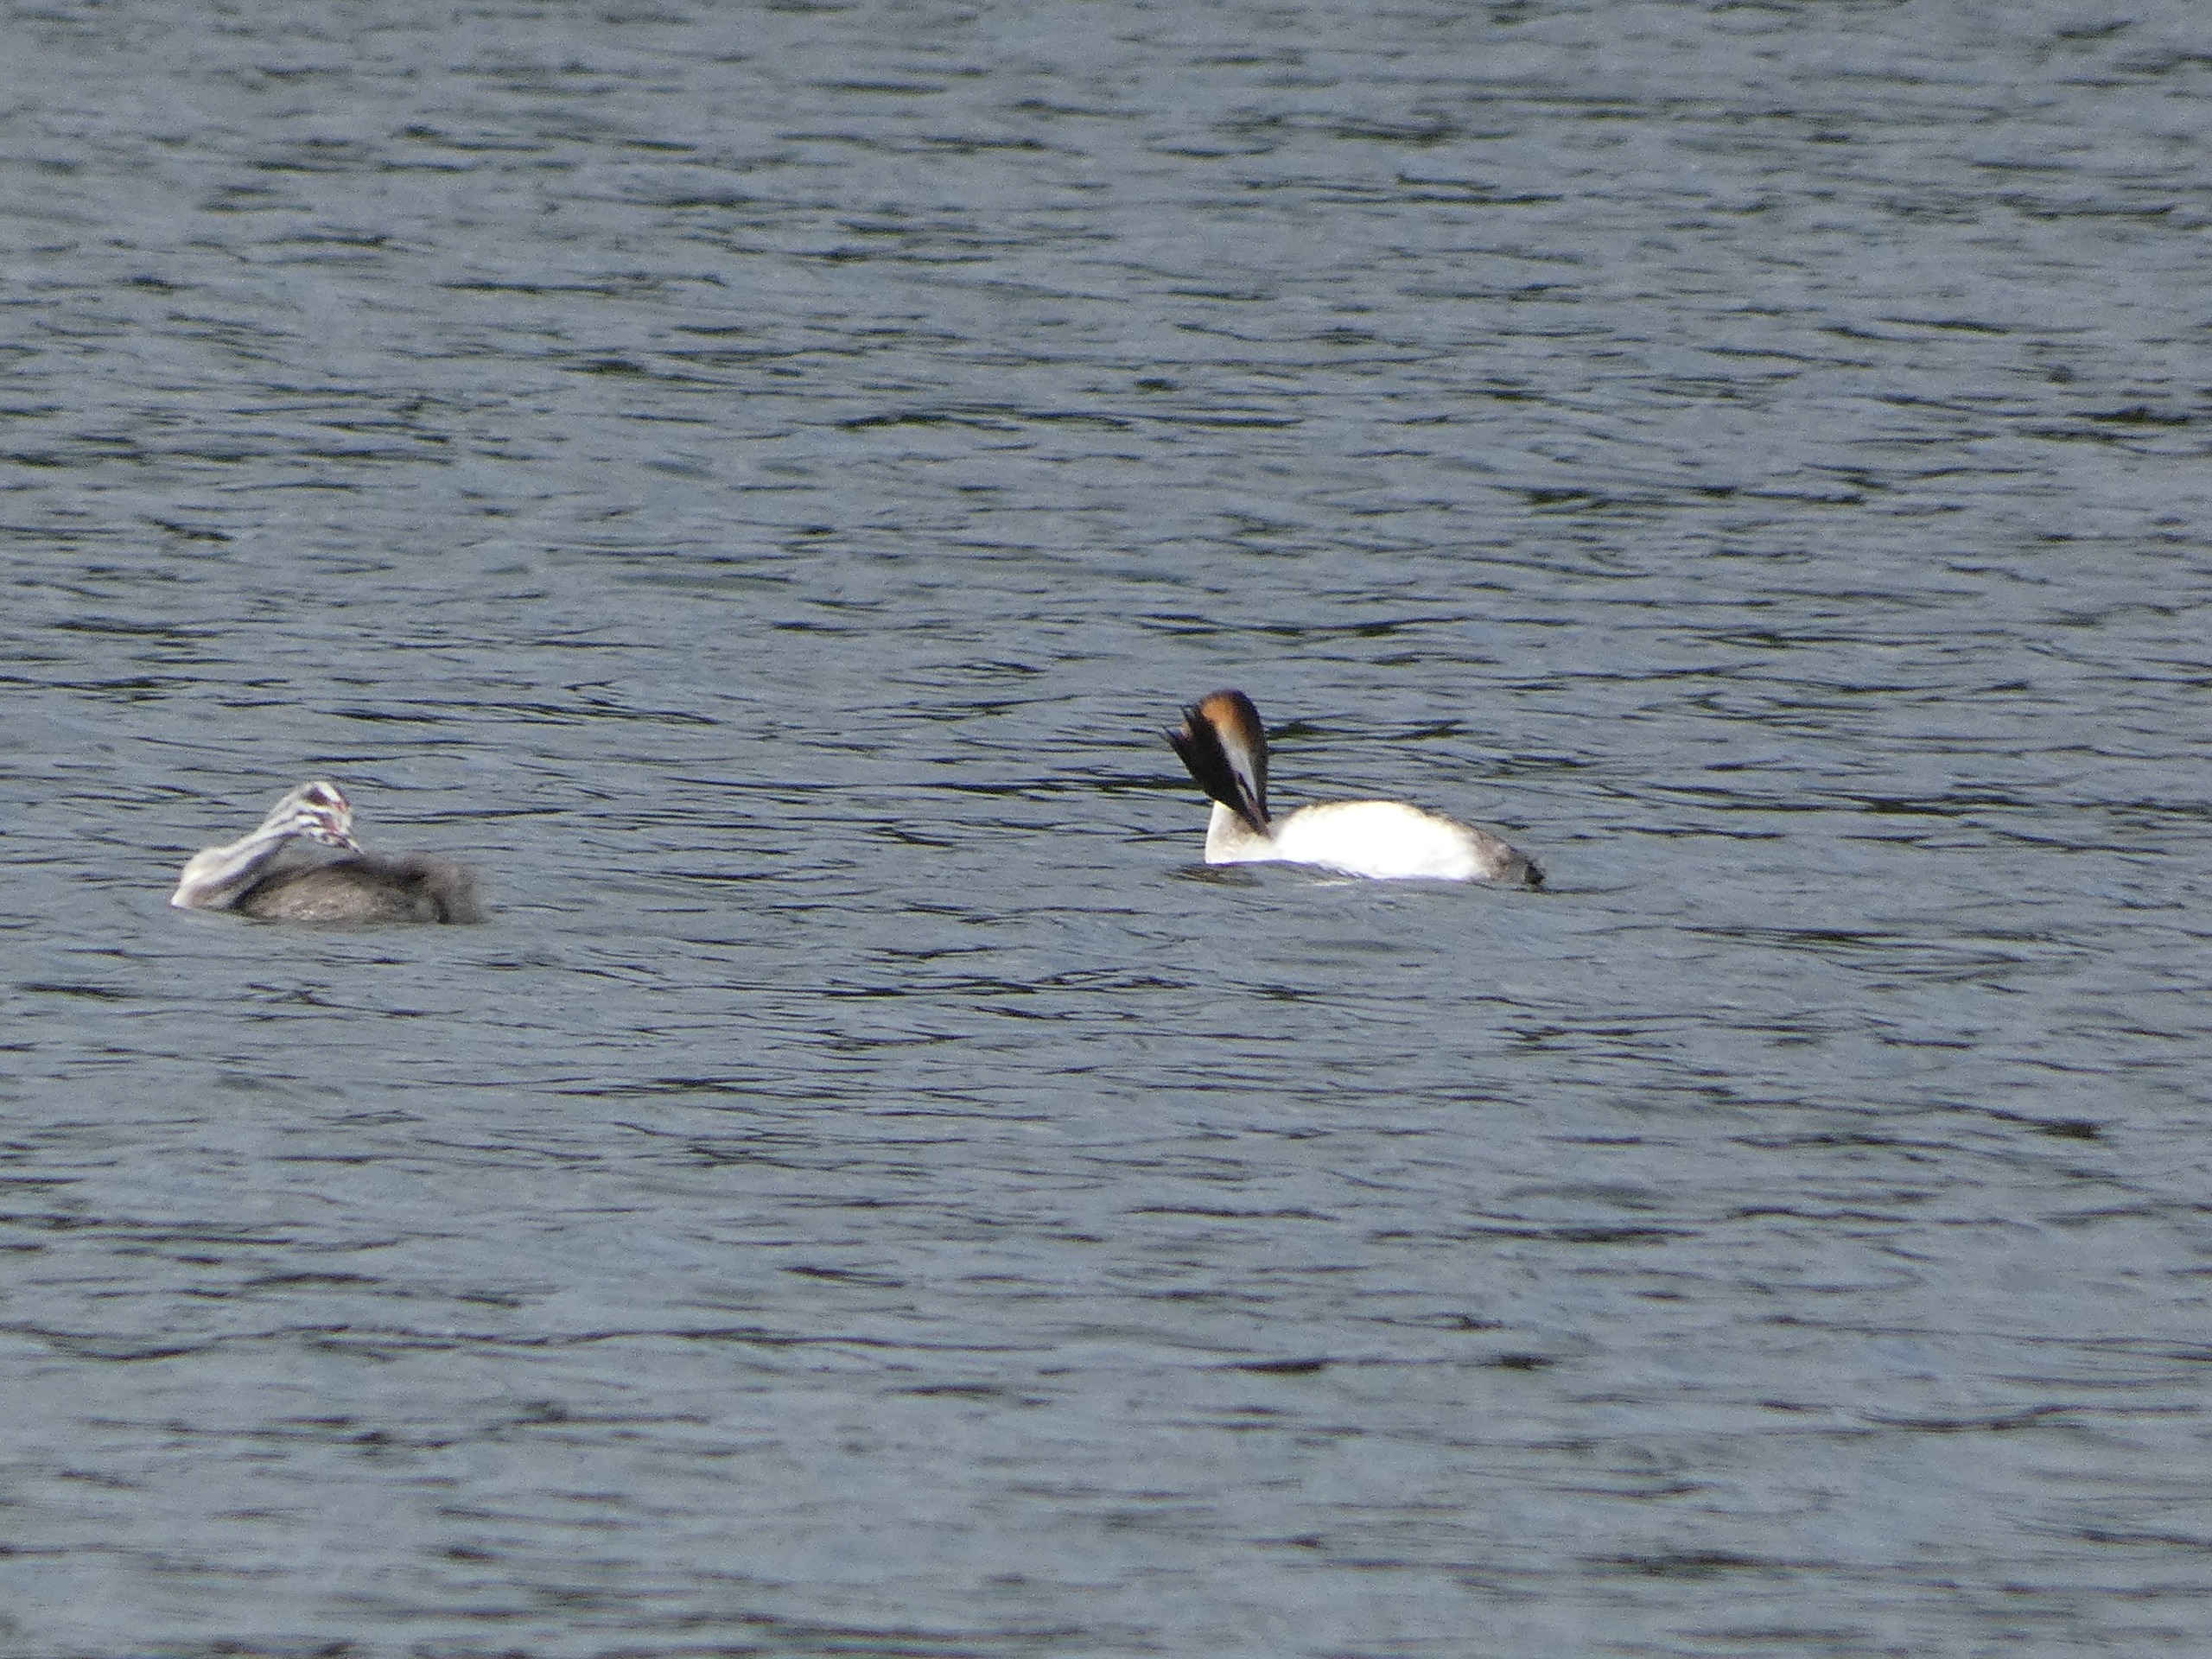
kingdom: Animalia
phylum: Chordata
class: Aves
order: Podicipediformes
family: Podicipedidae
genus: Podiceps
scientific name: Podiceps cristatus
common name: Toppet lappedykker
